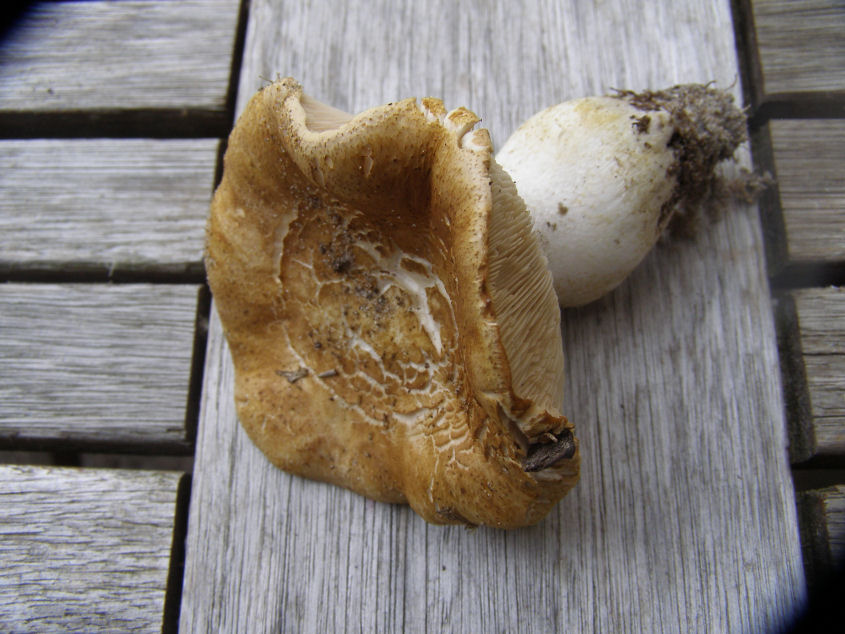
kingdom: Fungi
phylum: Basidiomycota
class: Agaricomycetes
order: Agaricales
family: Tricholomataceae
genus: Tricholoma
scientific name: Tricholoma apium
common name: suppe-ridderhat
